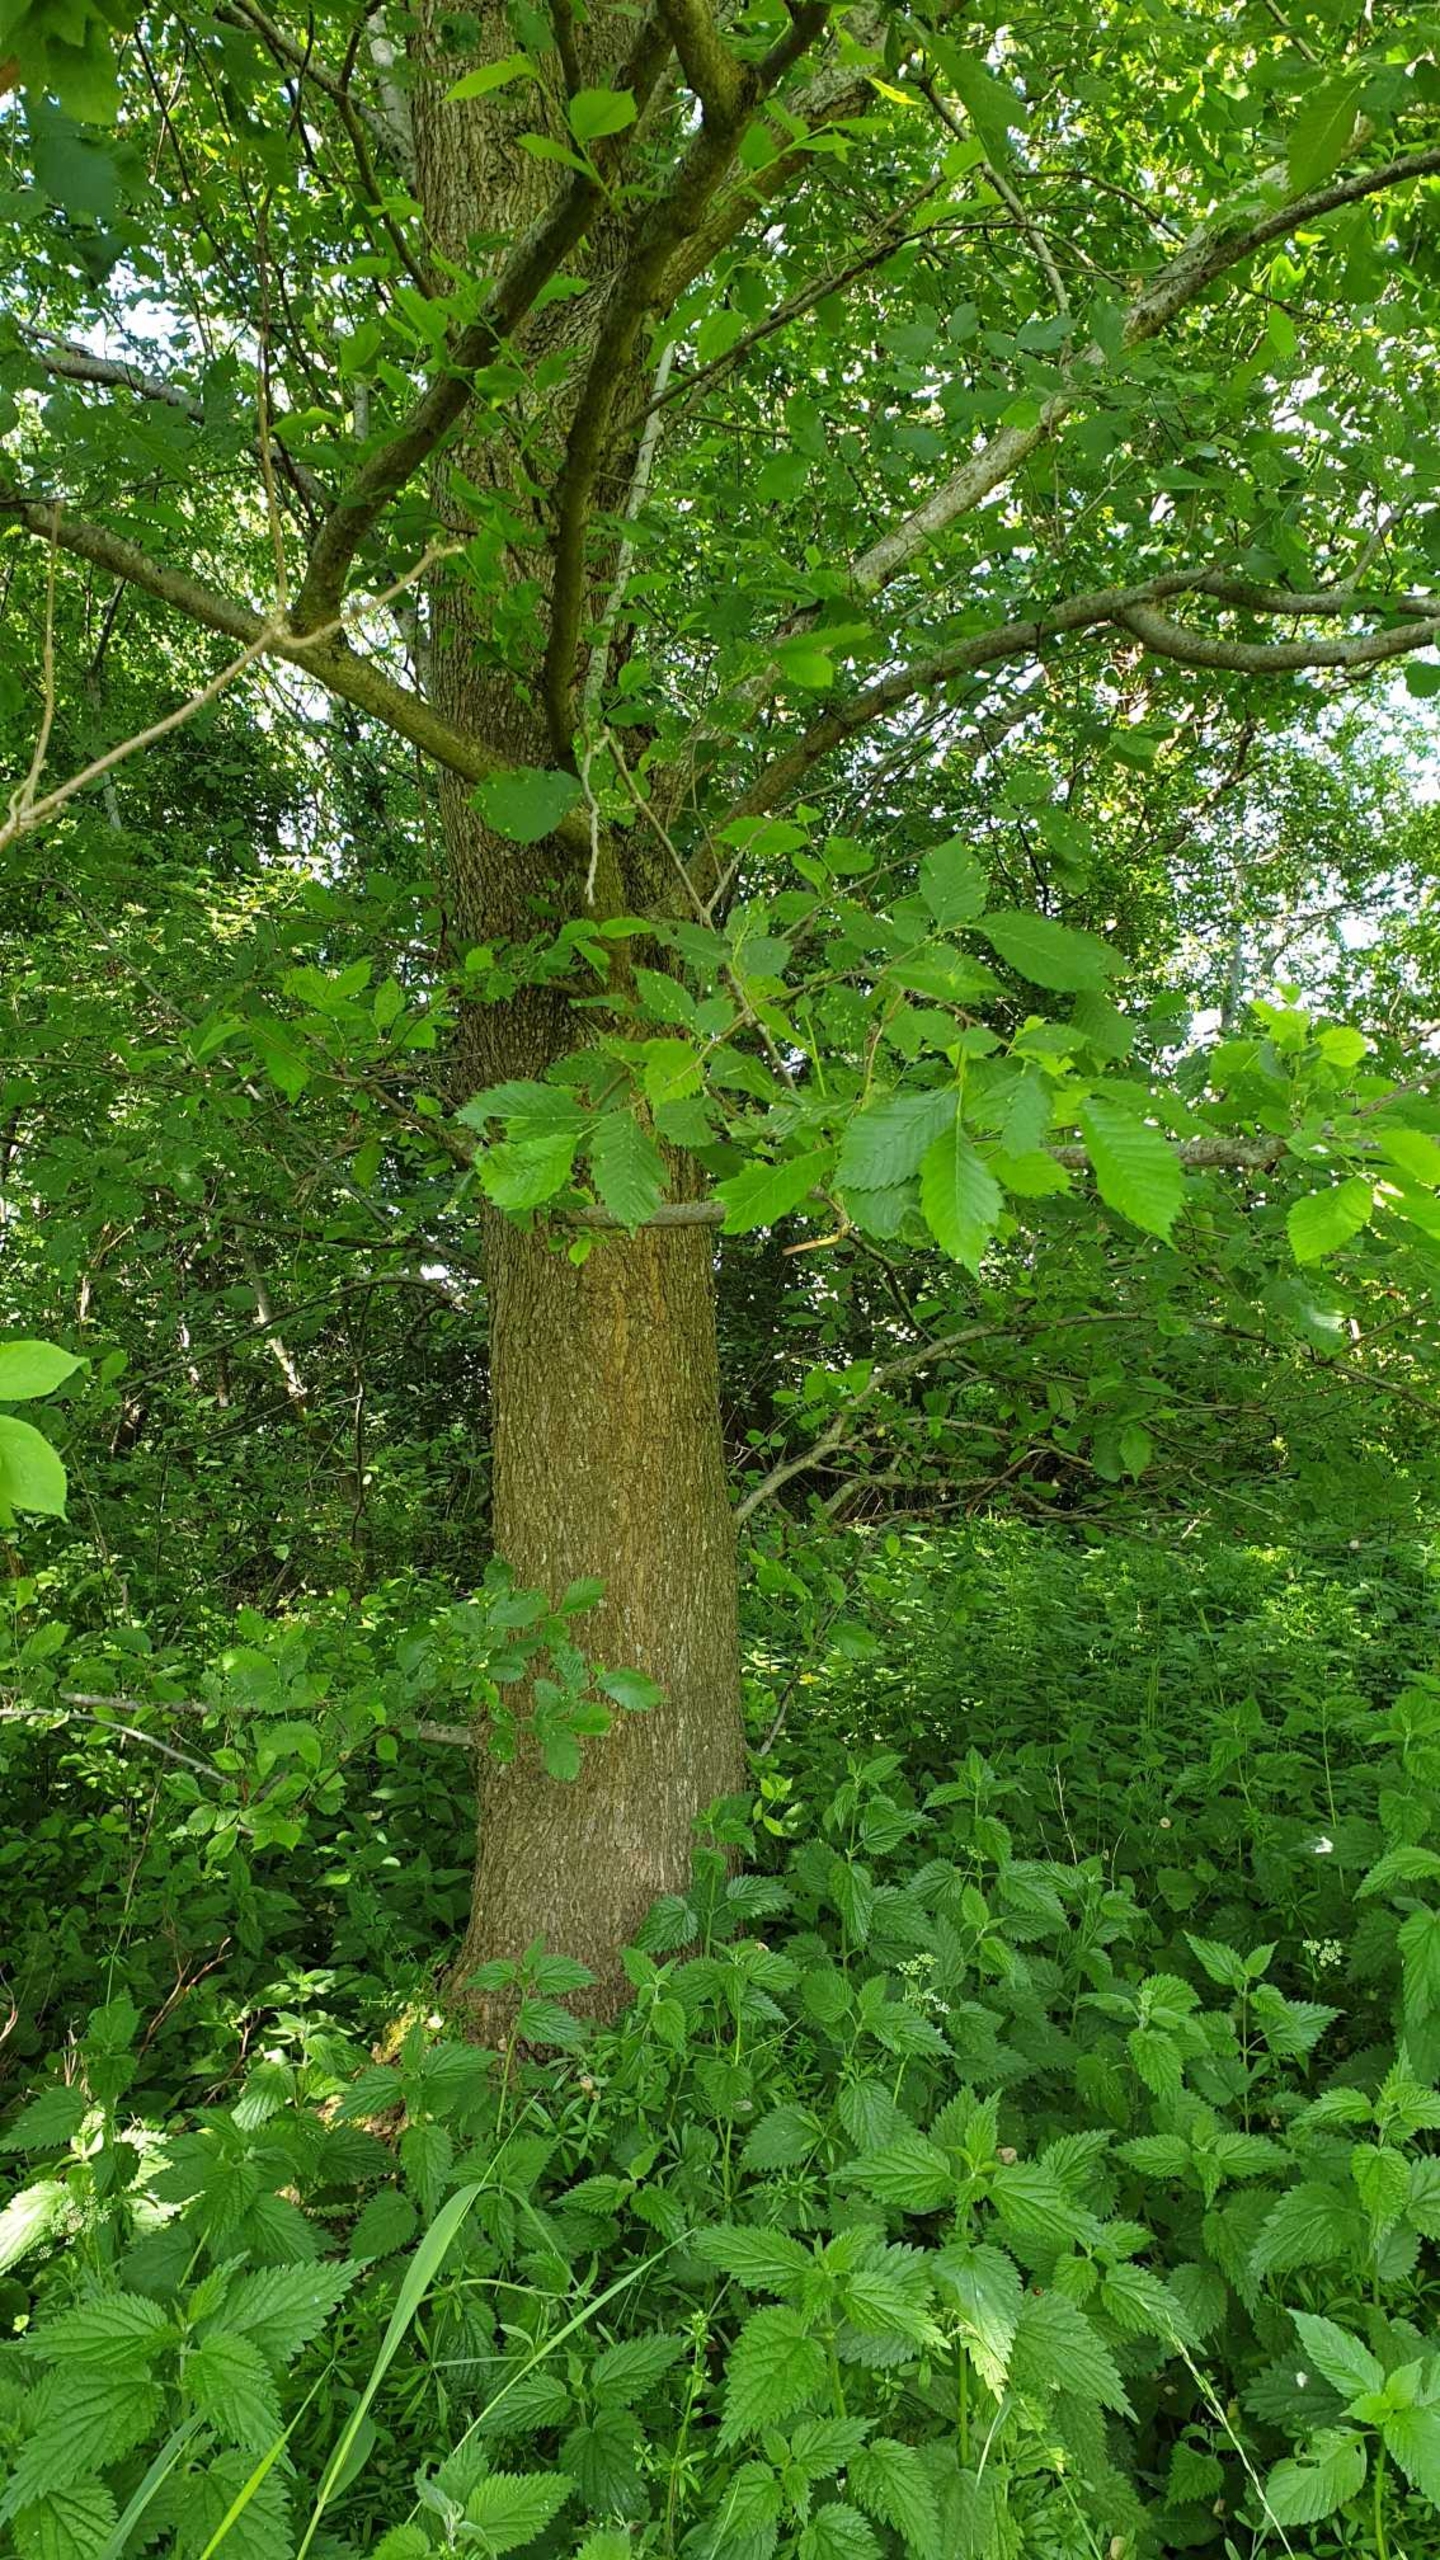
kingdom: Plantae
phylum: Tracheophyta
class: Magnoliopsida
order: Rosales
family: Ulmaceae
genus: Ulmus
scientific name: Ulmus laevis
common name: Skærm-elm
